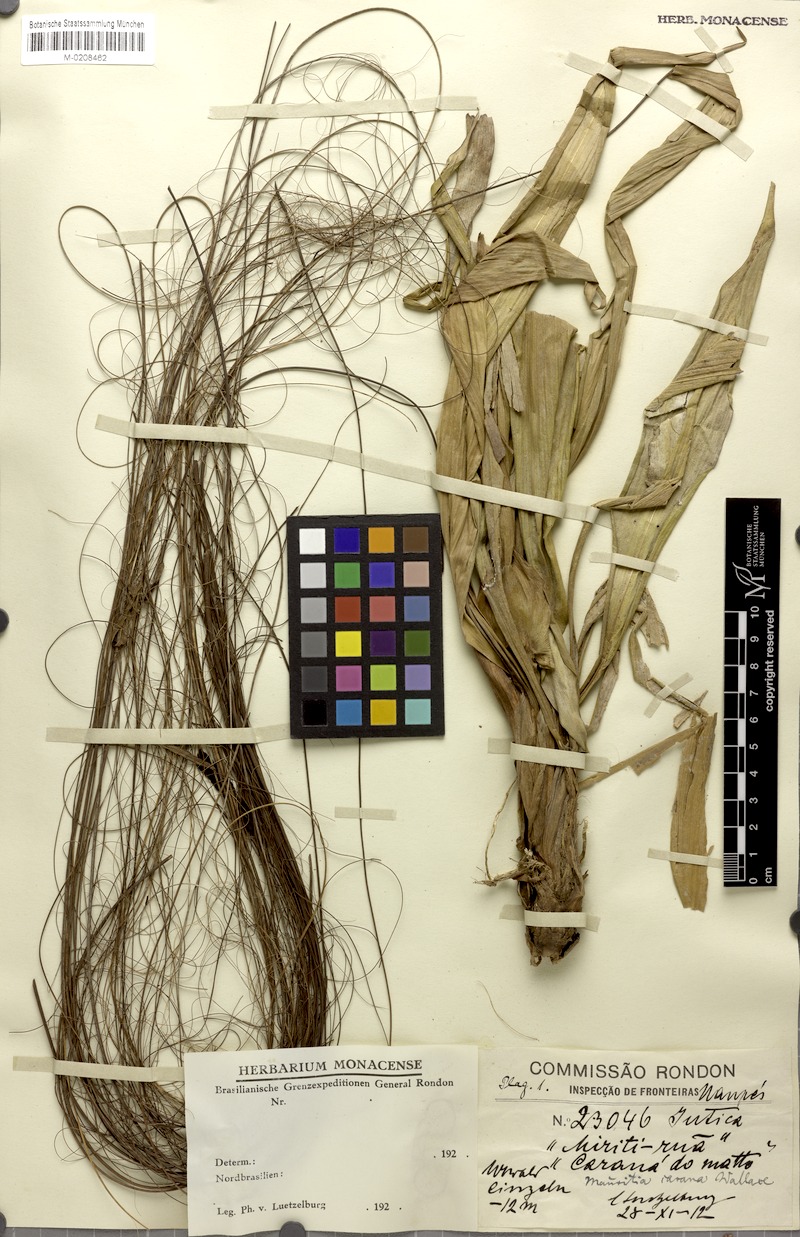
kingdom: Plantae
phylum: Tracheophyta
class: Liliopsida
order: Arecales
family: Arecaceae
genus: Mauritia
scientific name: Mauritia carana
